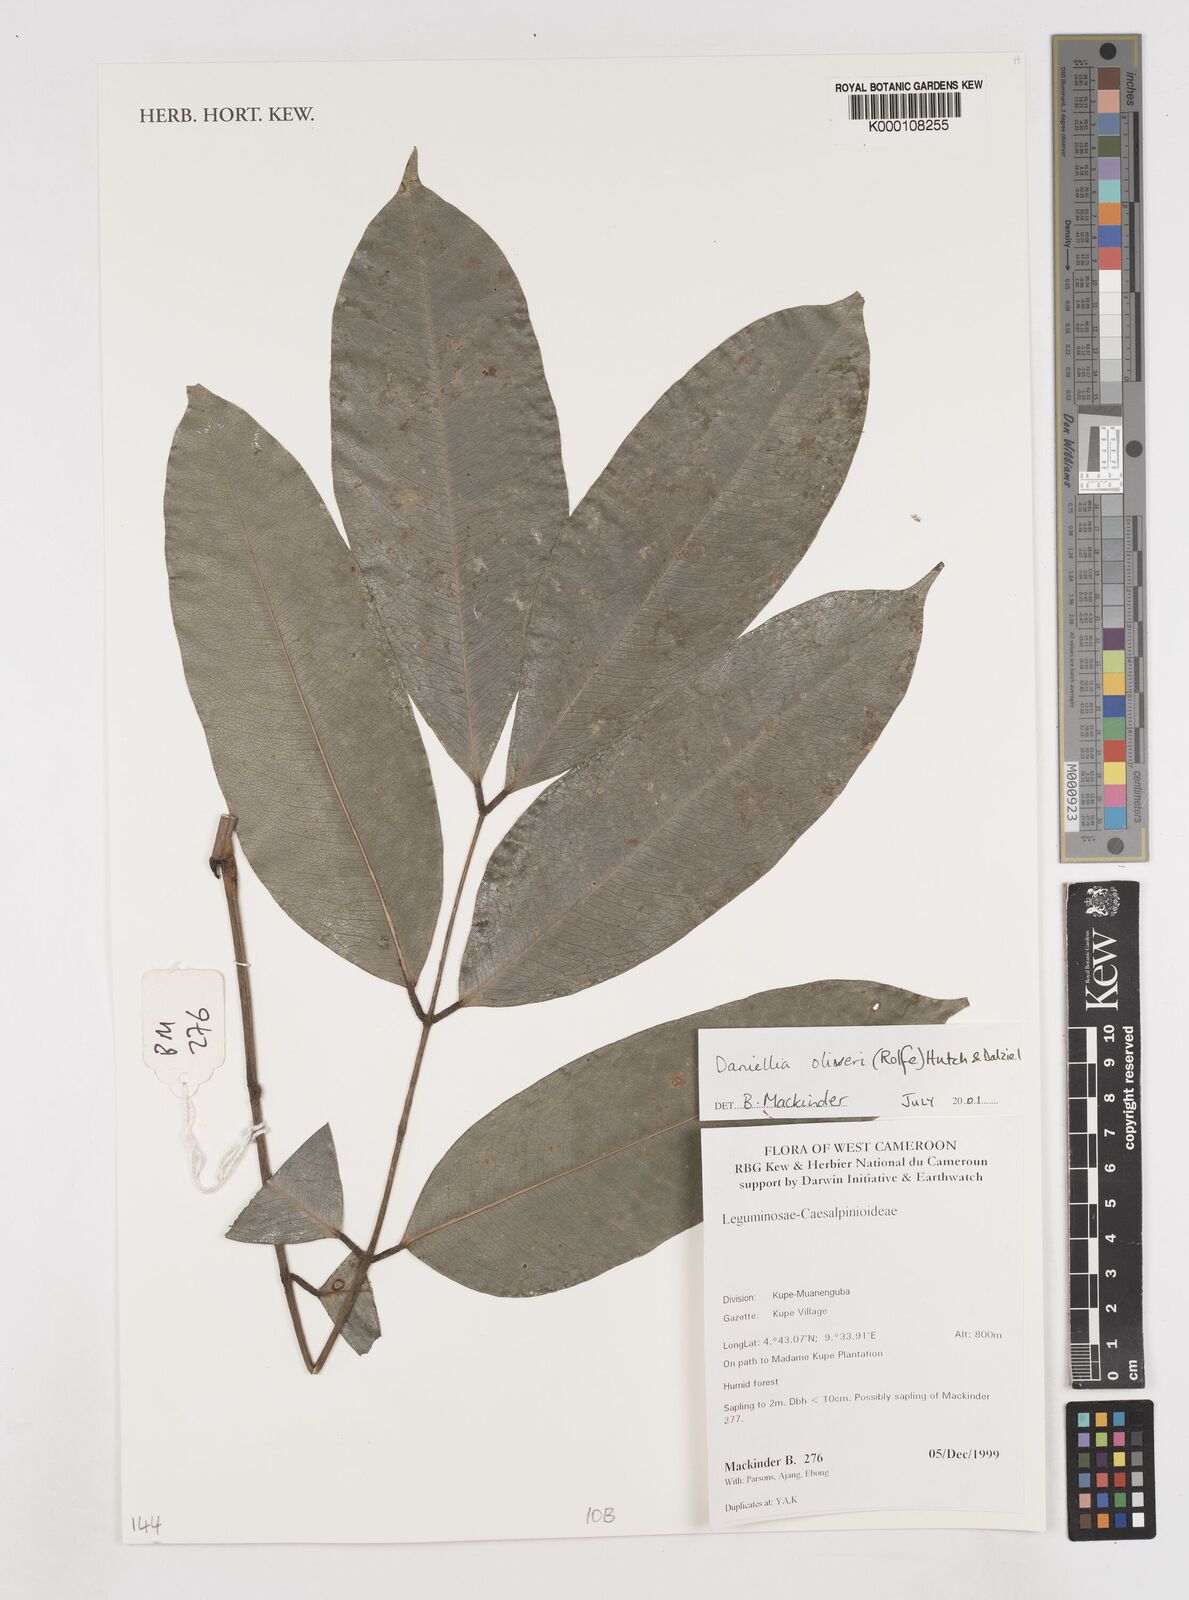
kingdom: Plantae
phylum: Tracheophyta
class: Magnoliopsida
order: Fabales
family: Fabaceae
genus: Daniellia
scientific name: Daniellia oliveri
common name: African copaiba balsamtree
